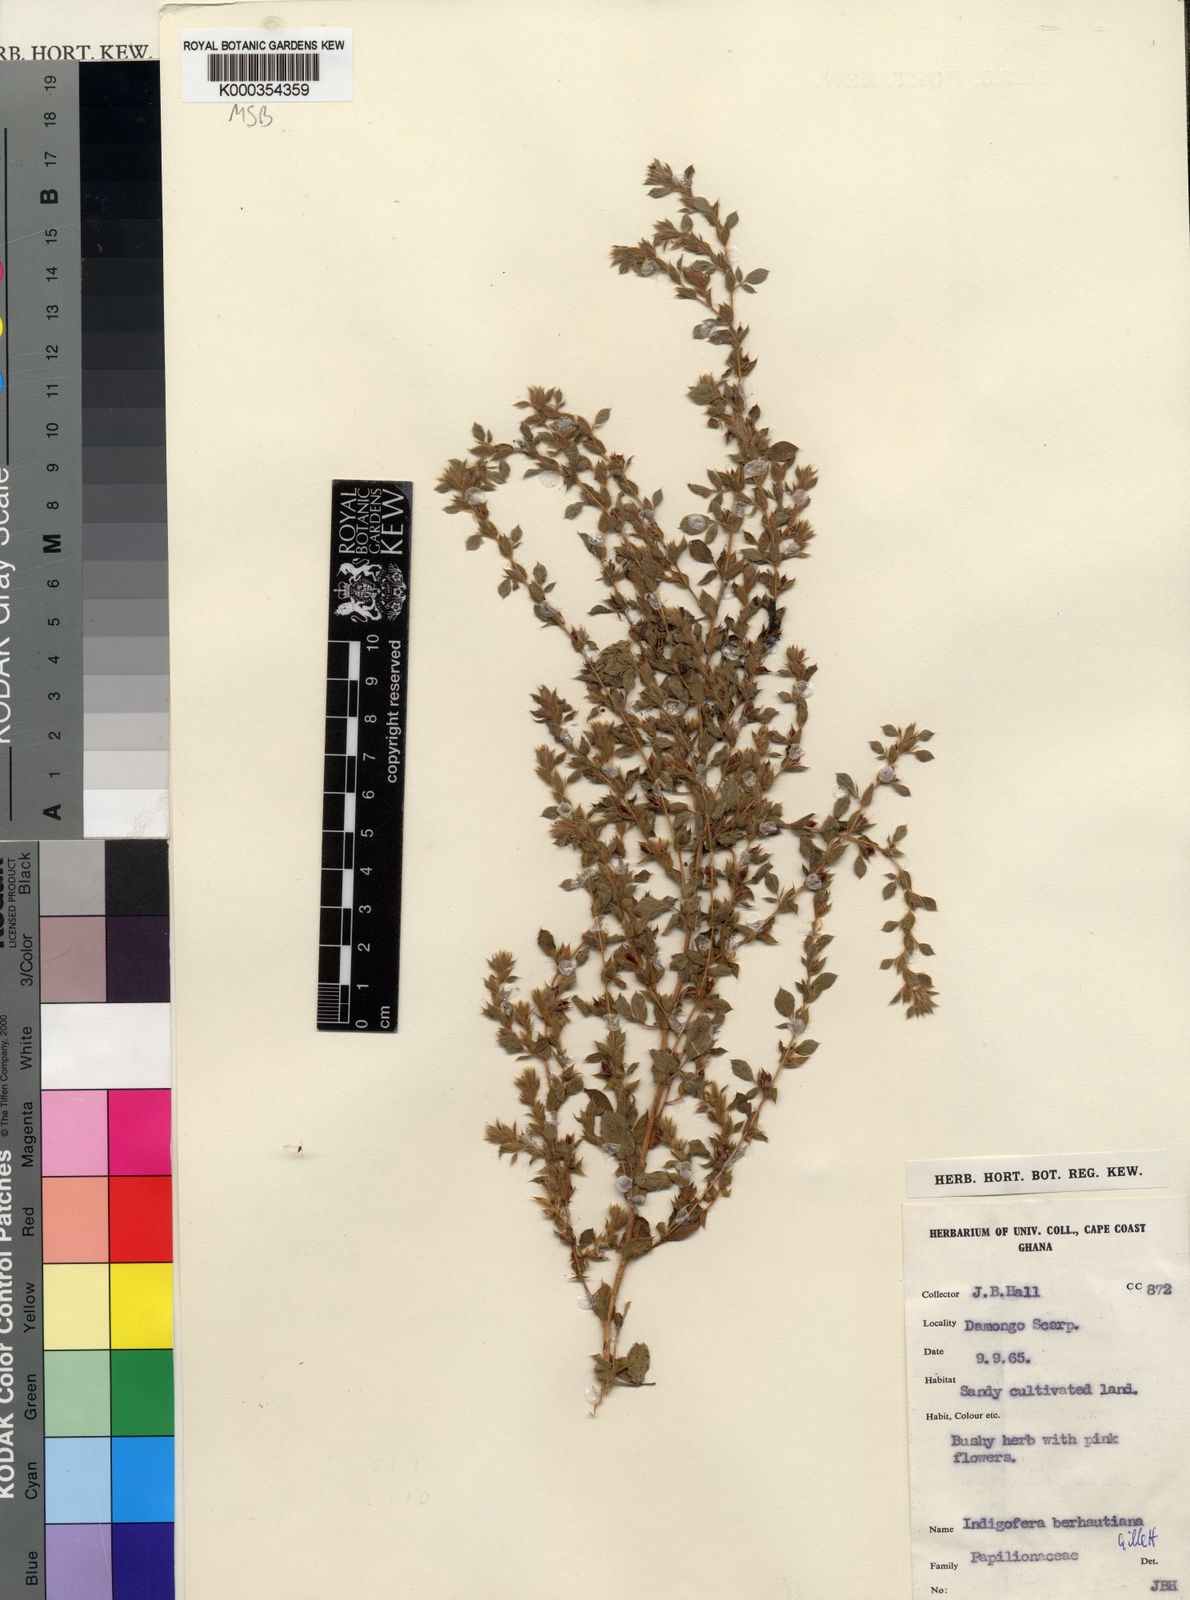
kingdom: Plantae
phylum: Tracheophyta
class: Magnoliopsida
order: Fabales
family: Fabaceae
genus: Indigofera
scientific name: Indigofera berhautiana
